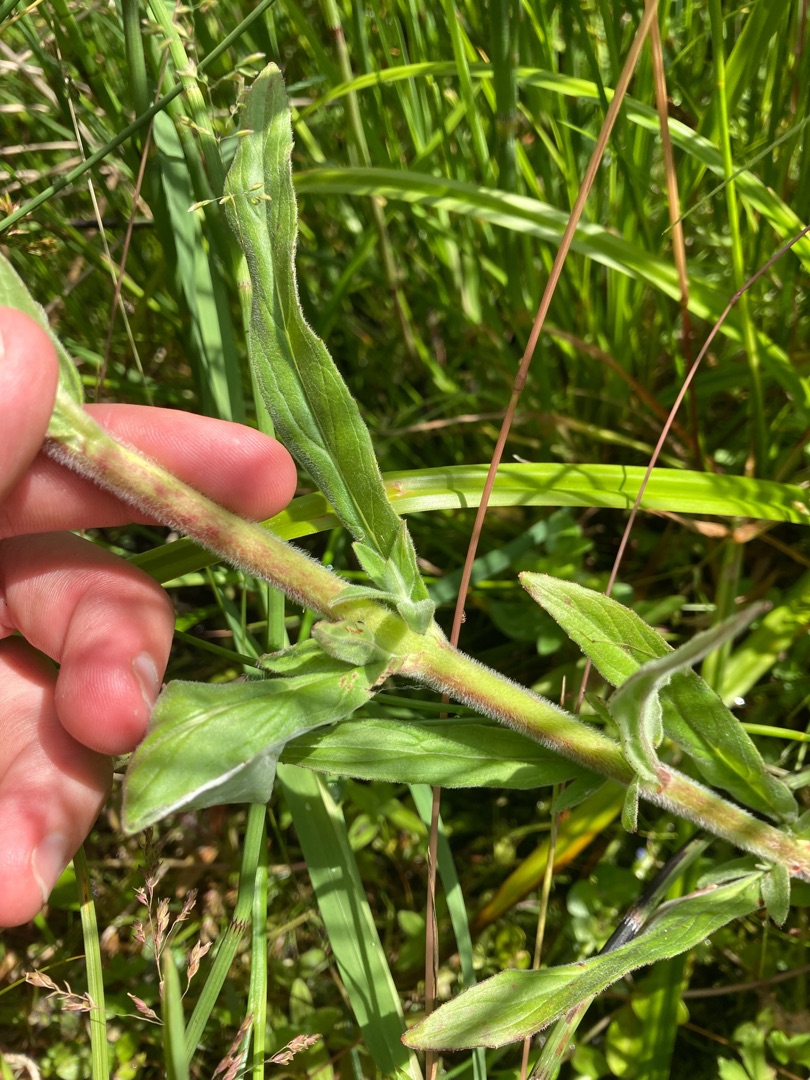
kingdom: Plantae
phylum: Tracheophyta
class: Magnoliopsida
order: Myrtales
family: Onagraceae
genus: Epilobium
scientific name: Epilobium parviflorum
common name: Dunet dueurt
